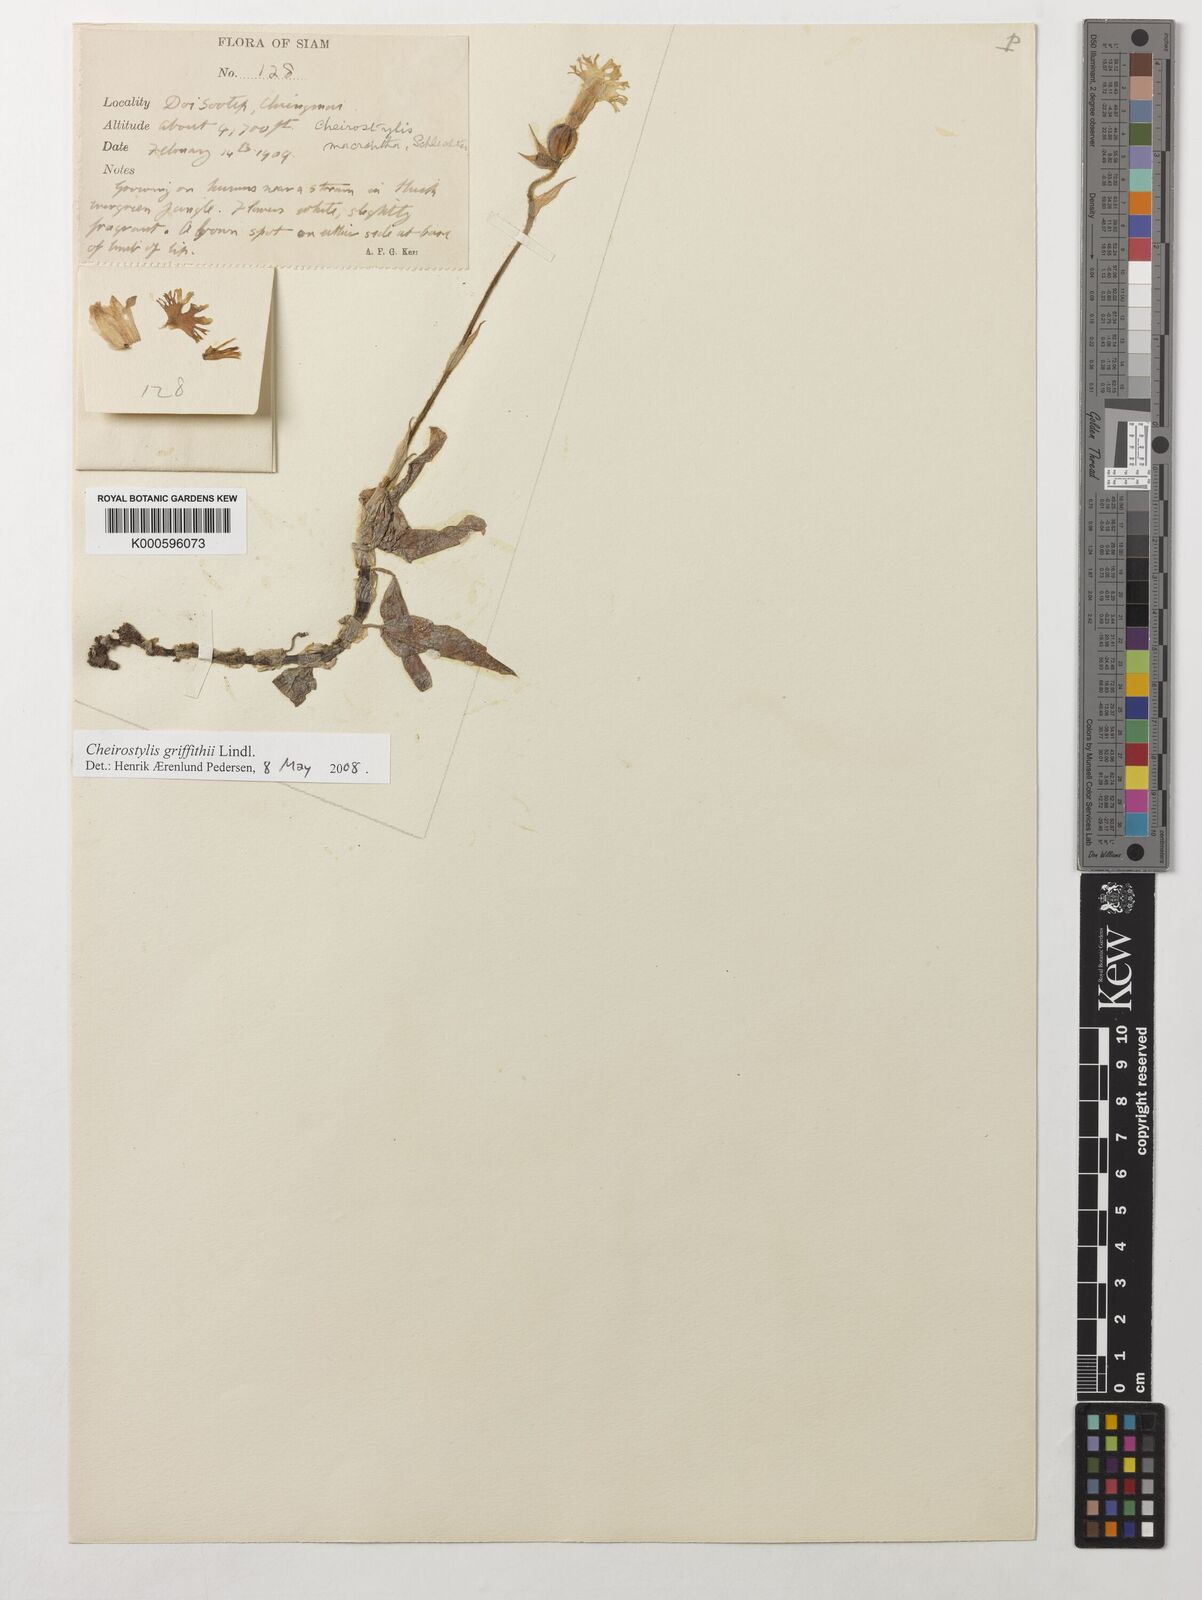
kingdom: Plantae
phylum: Tracheophyta
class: Liliopsida
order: Asparagales
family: Orchidaceae
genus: Cheirostylis
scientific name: Cheirostylis griffithii
